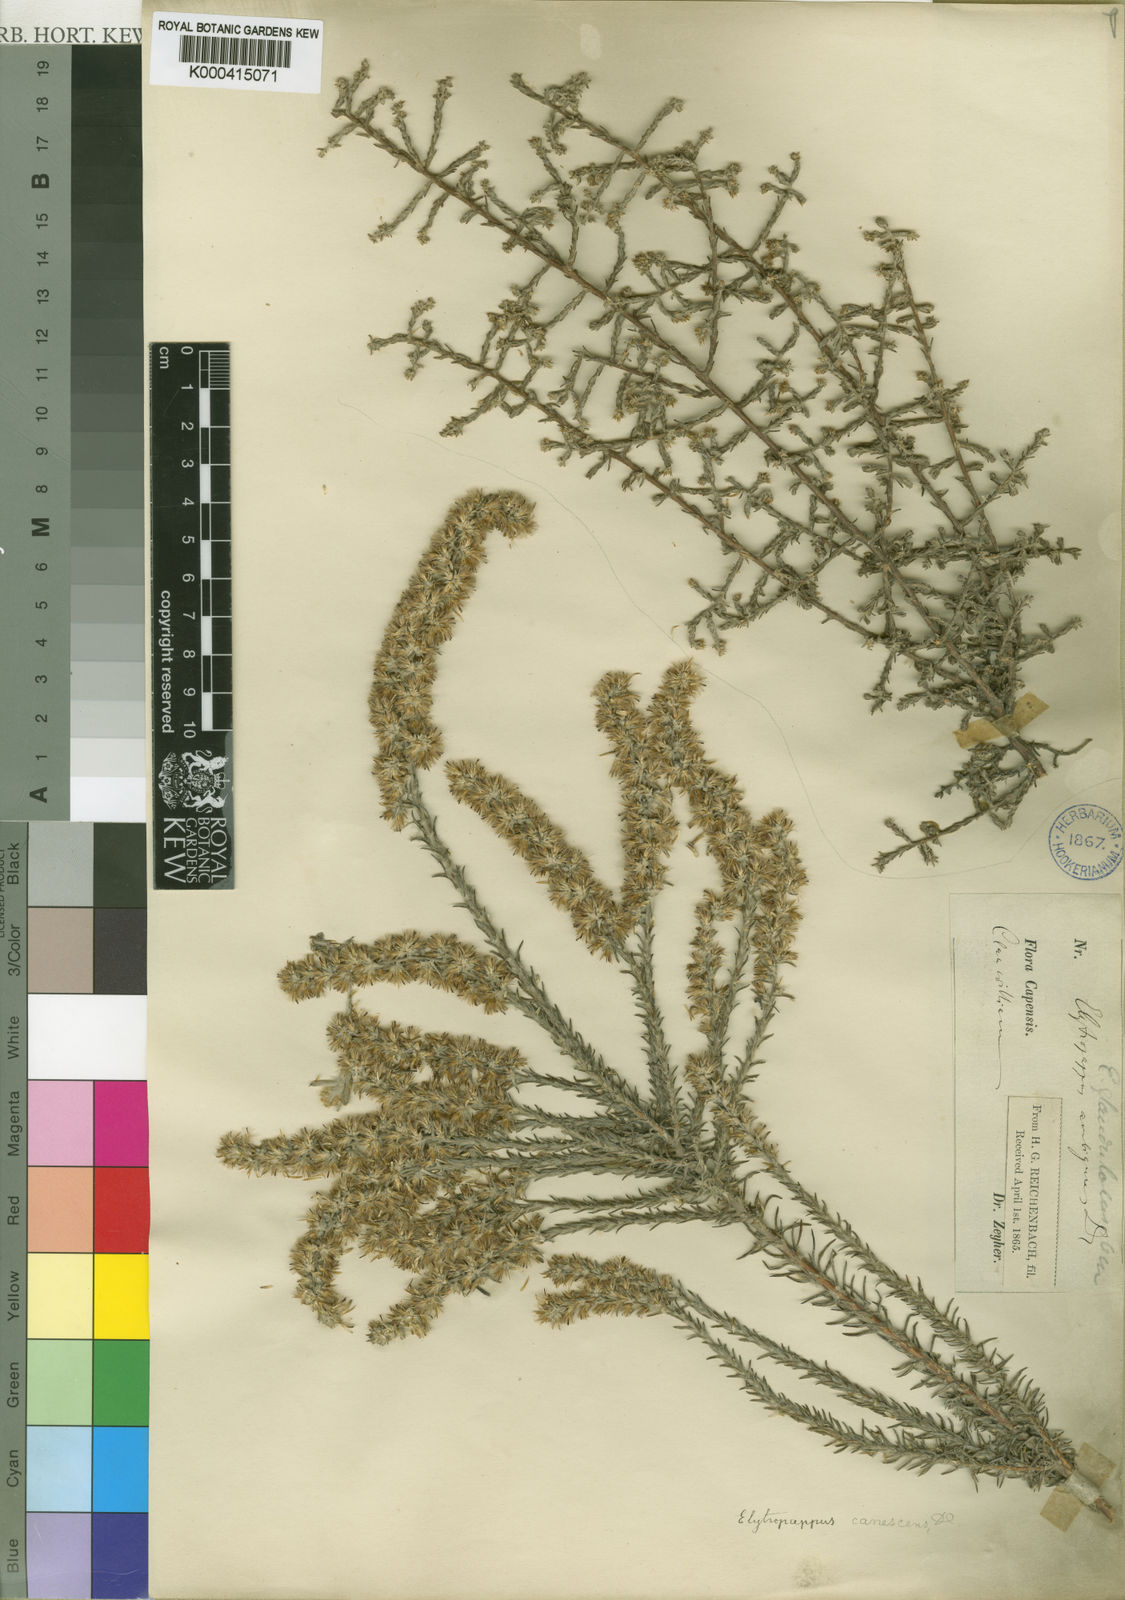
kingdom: Plantae
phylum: Tracheophyta
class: Magnoliopsida
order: Asterales
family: Asteraceae
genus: Myrovernix
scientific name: Myrovernix gnaphaloides
